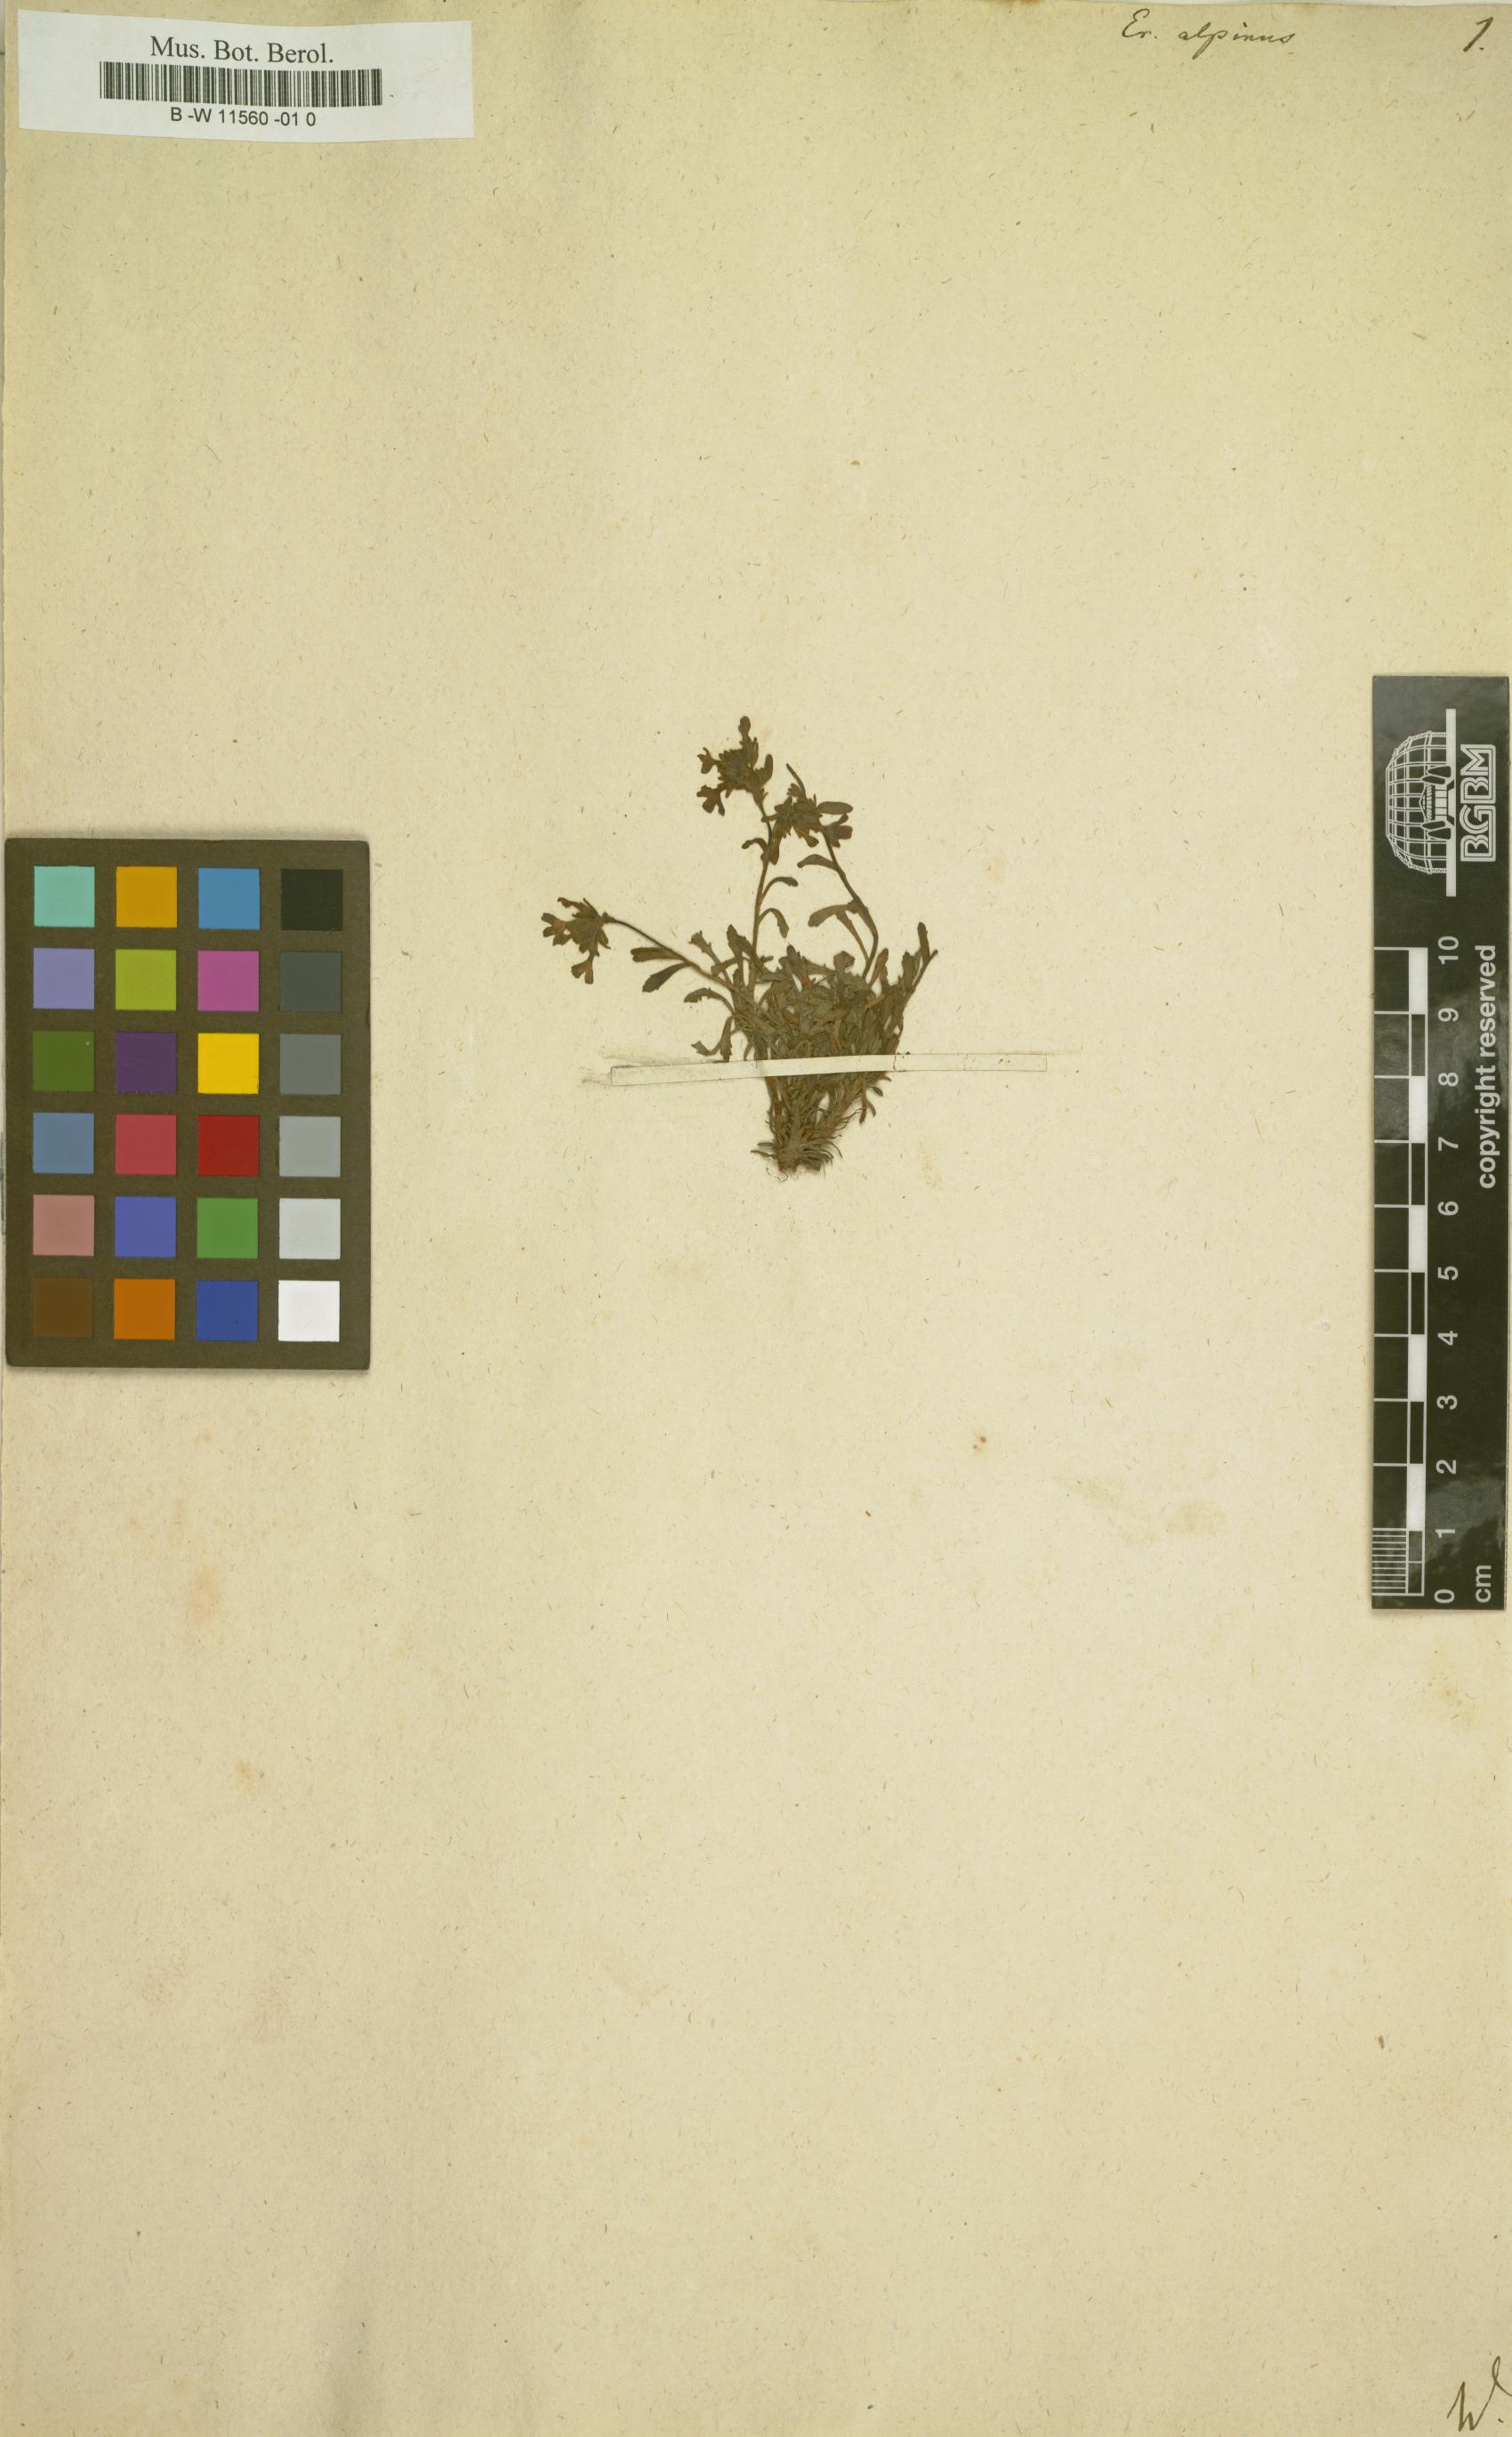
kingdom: Plantae
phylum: Tracheophyta
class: Magnoliopsida
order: Lamiales
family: Plantaginaceae
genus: Erinus
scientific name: Erinus alpinus
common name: Fairy foxglove
